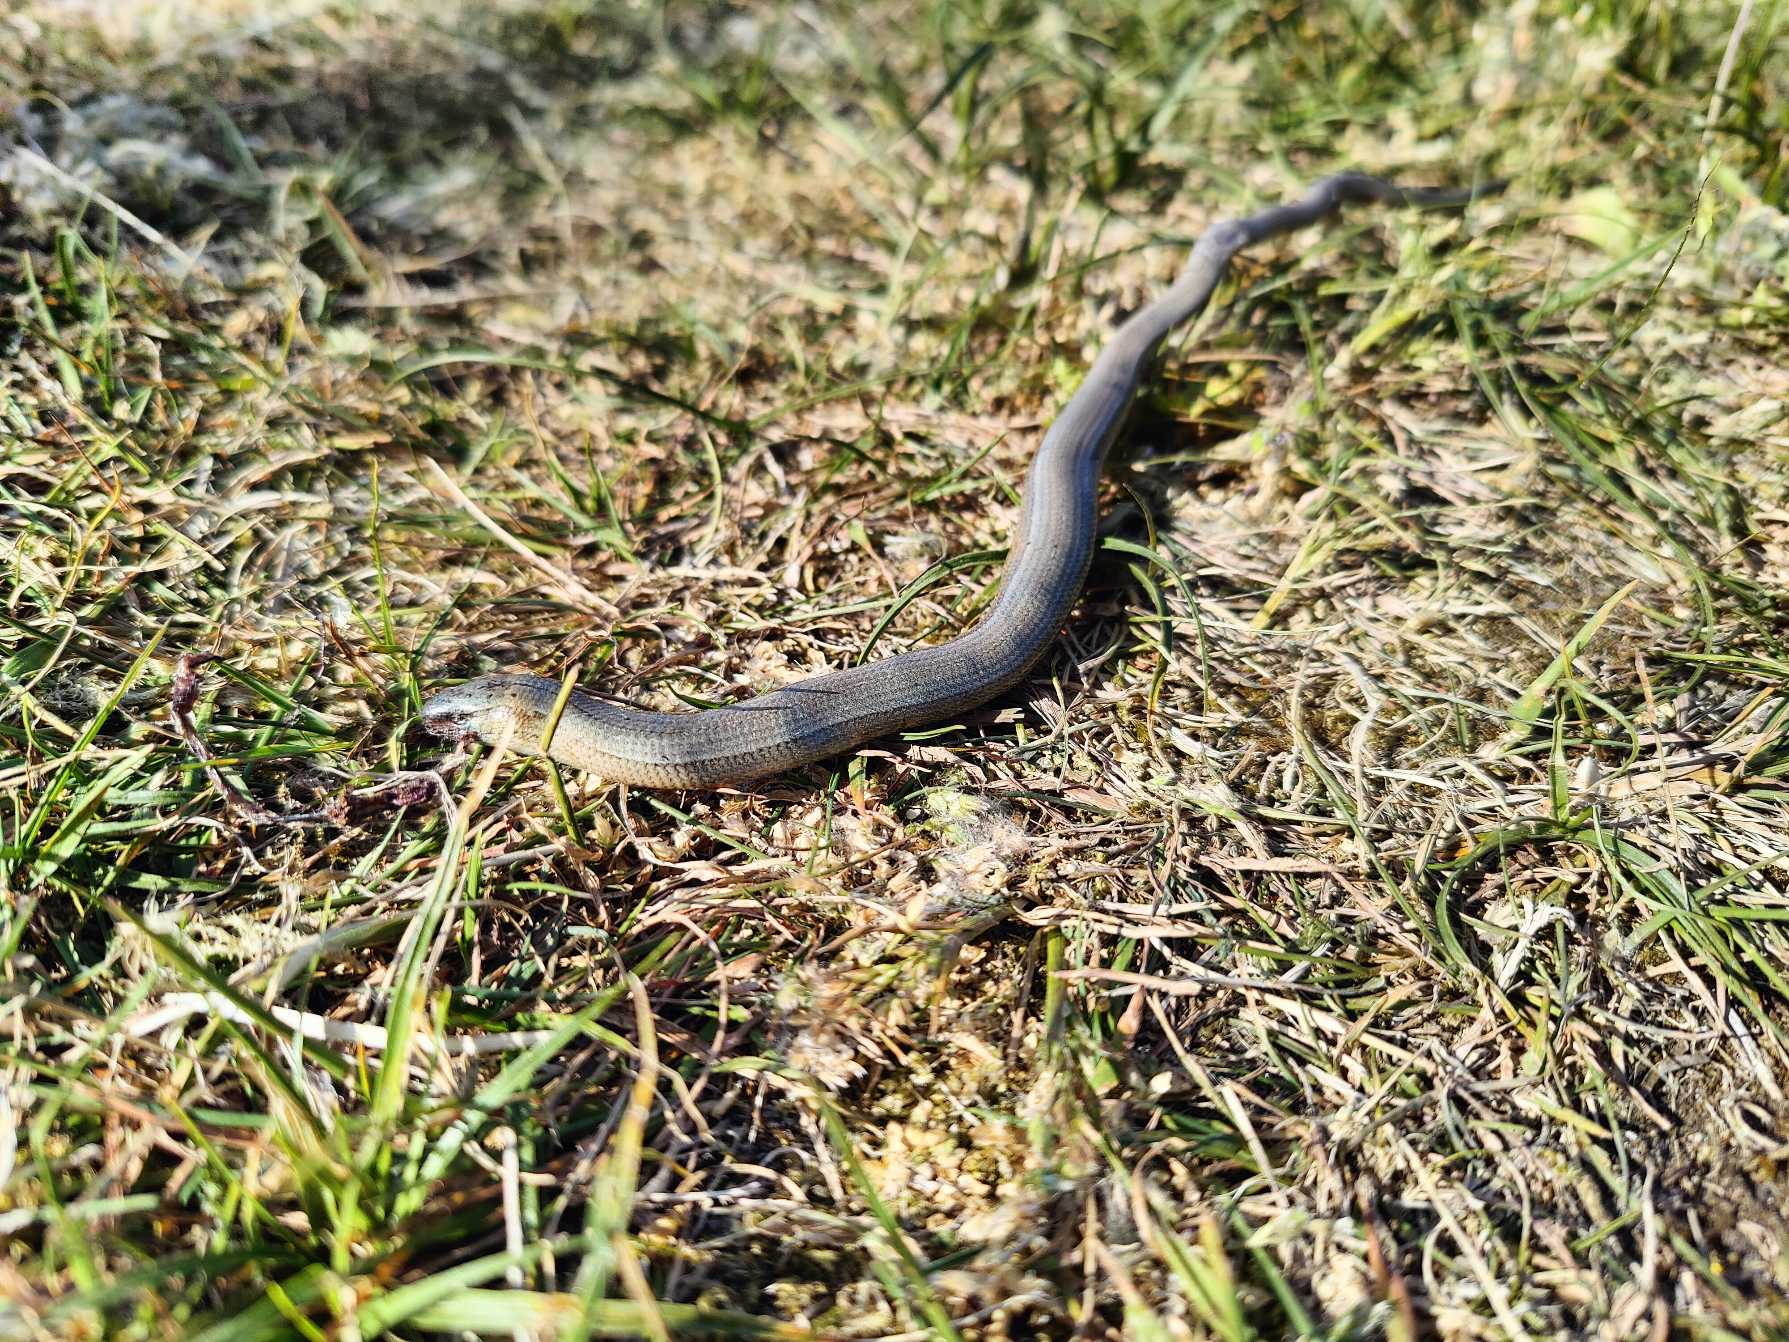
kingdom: Animalia
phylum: Chordata
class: Squamata
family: Anguidae
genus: Anguis
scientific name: Anguis fragilis
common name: Stålorm
